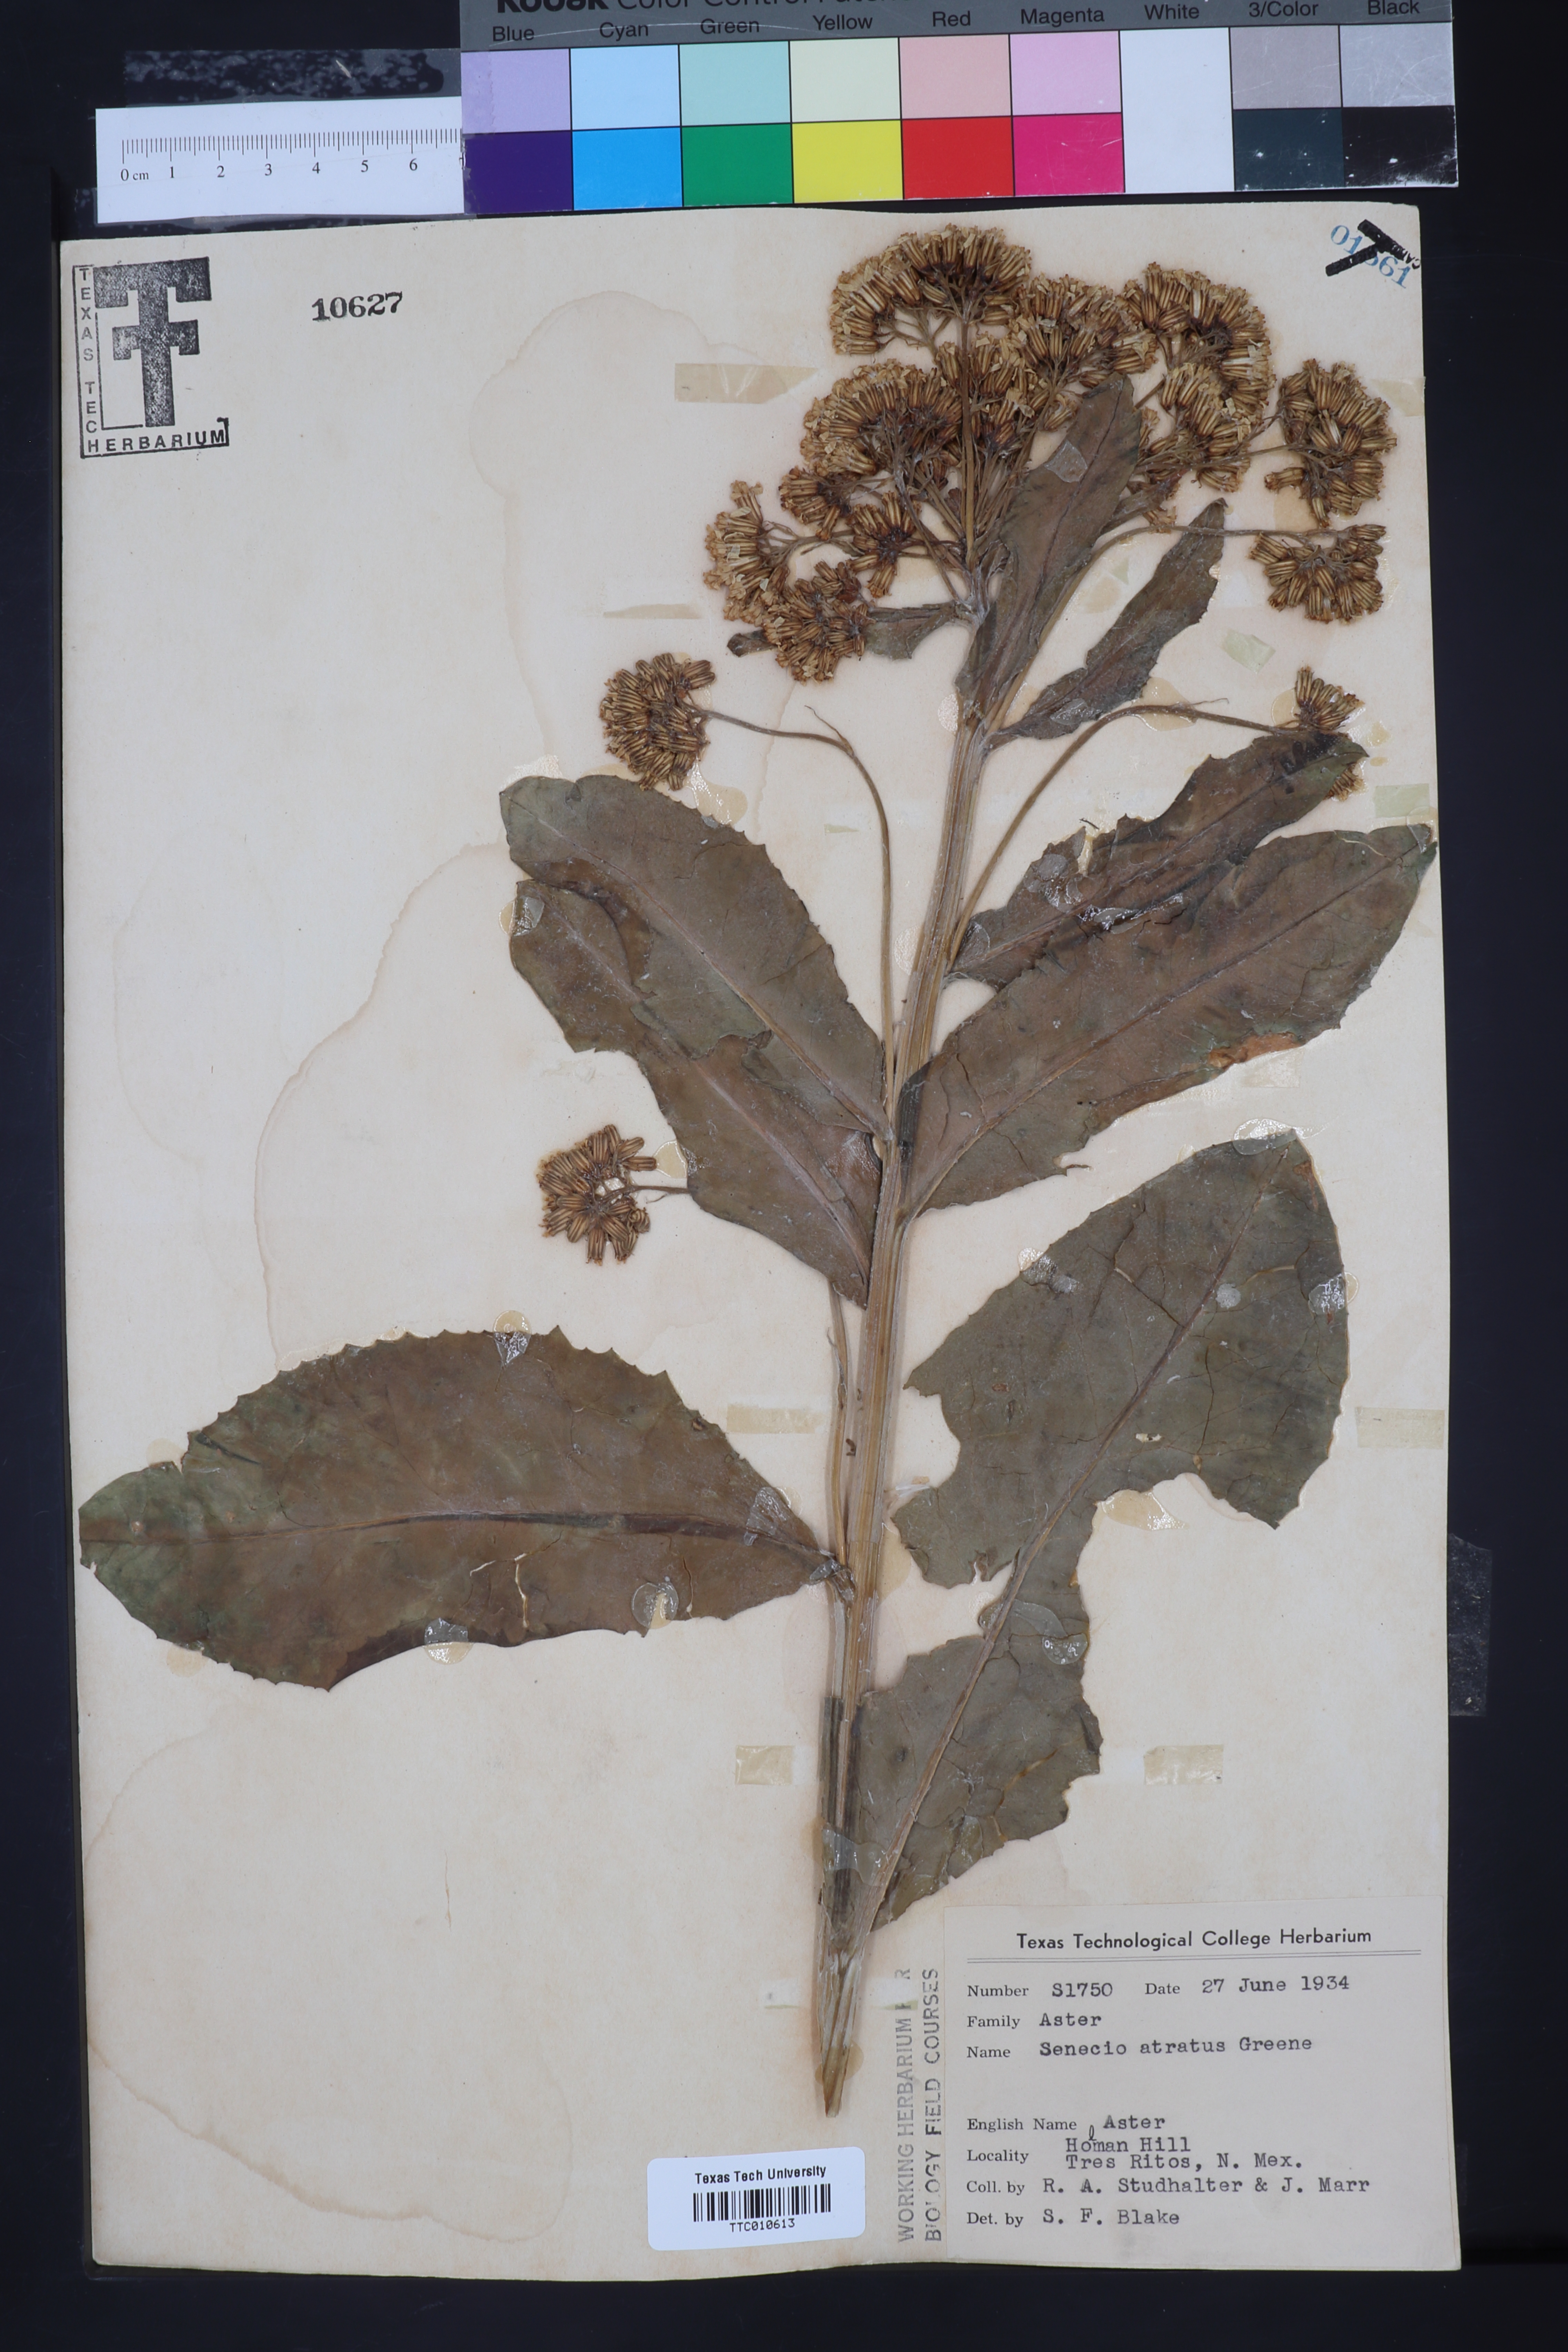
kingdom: Plantae
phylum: Tracheophyta
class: Magnoliopsida
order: Asterales
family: Asteraceae
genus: Packera
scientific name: Packera sanguisorboides
